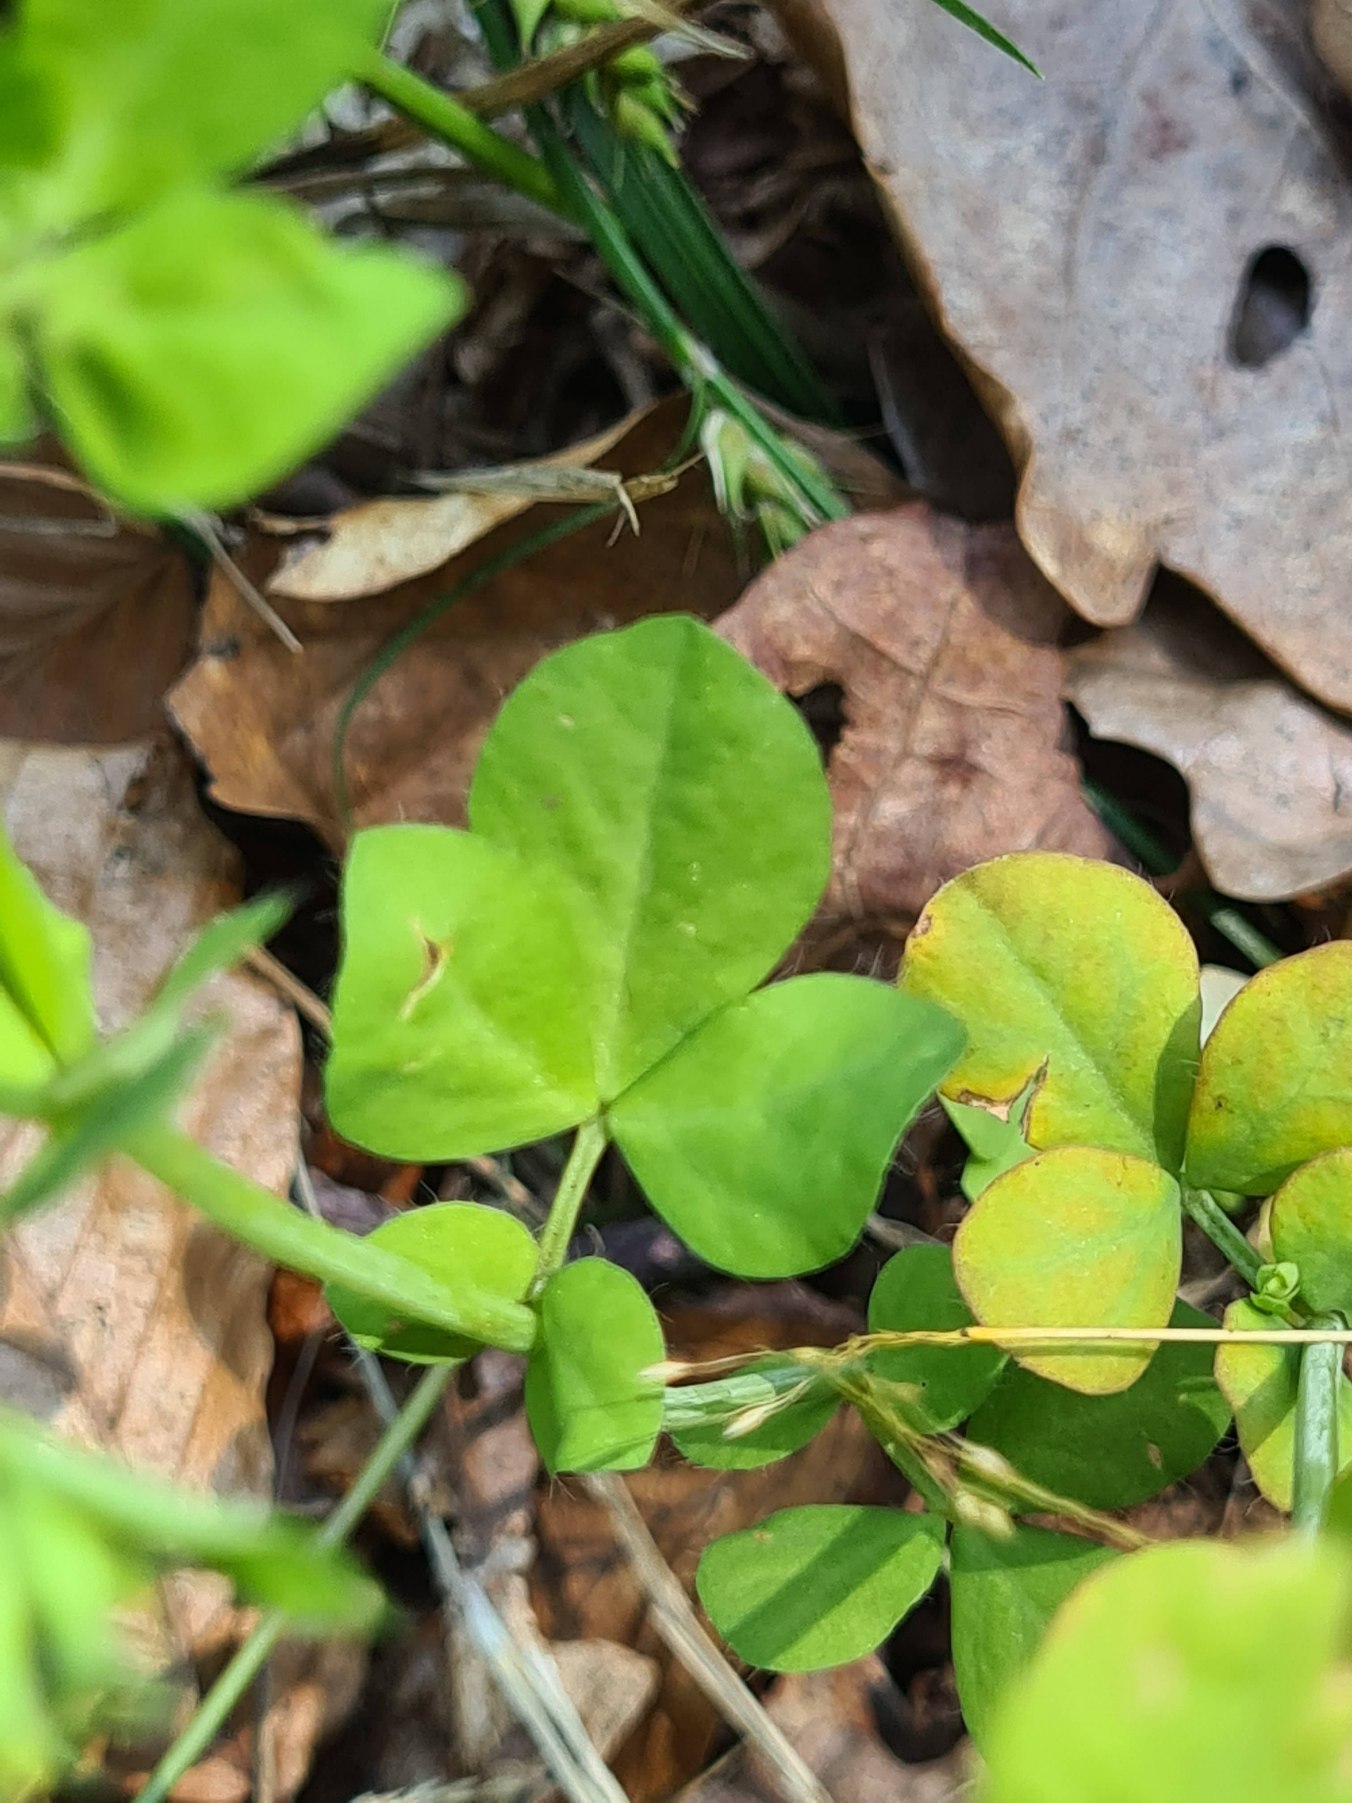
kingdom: Plantae
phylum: Tracheophyta
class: Magnoliopsida
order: Fabales
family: Fabaceae
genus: Lotus
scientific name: Lotus pedunculatus
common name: Sump-kællingetand
